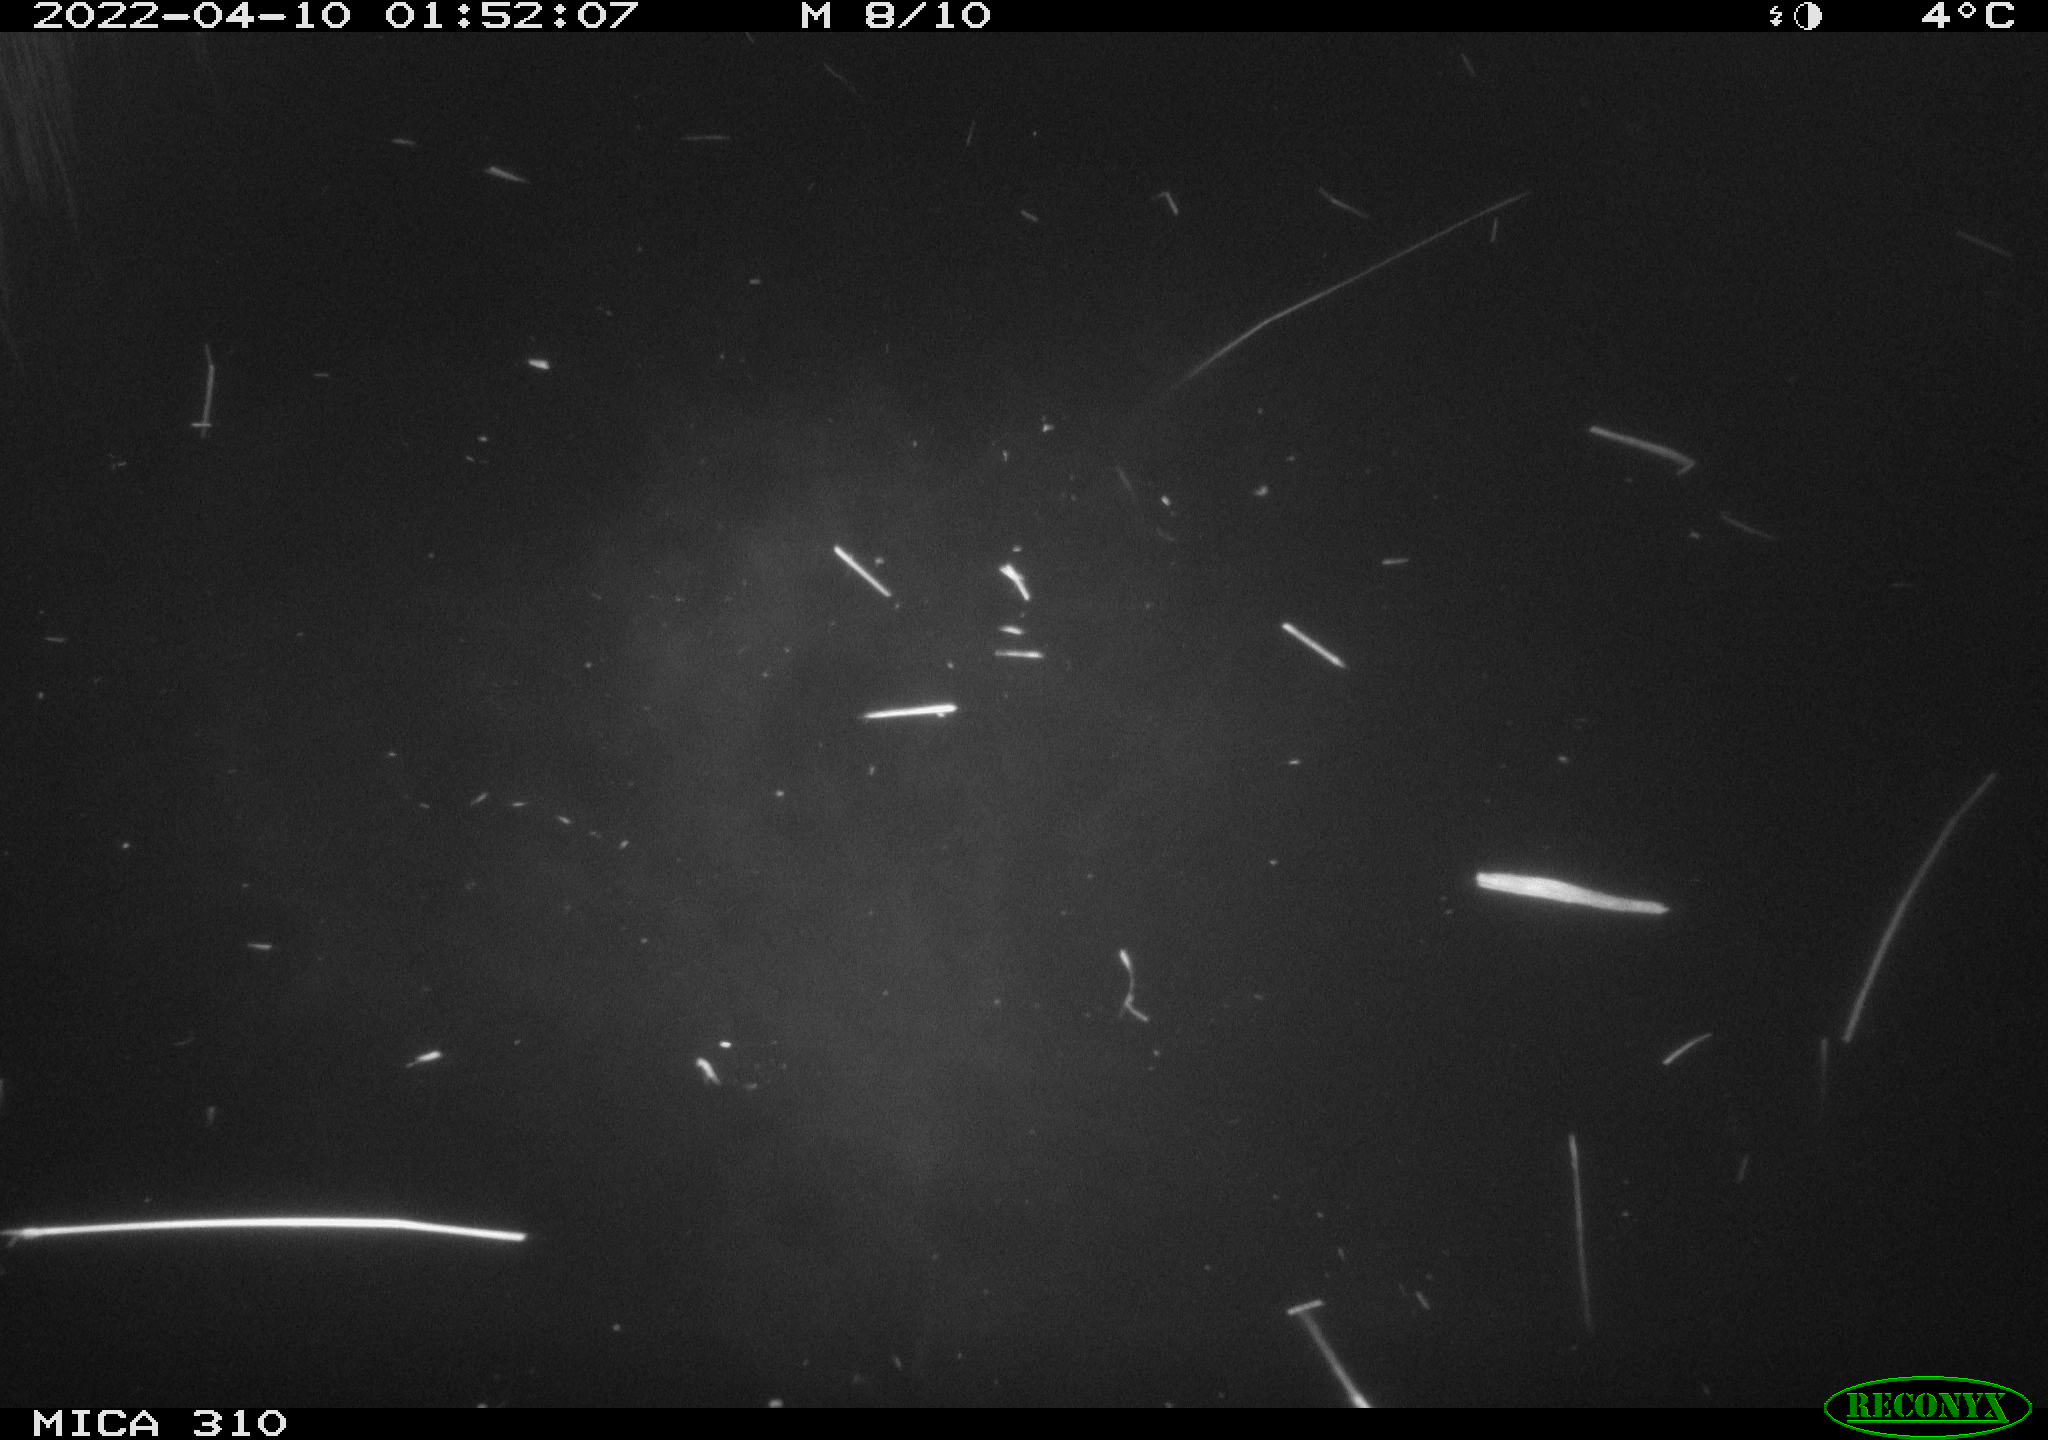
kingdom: Animalia
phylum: Chordata
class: Aves
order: Anseriformes
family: Anatidae
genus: Anas
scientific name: Anas platyrhynchos
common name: Mallard
